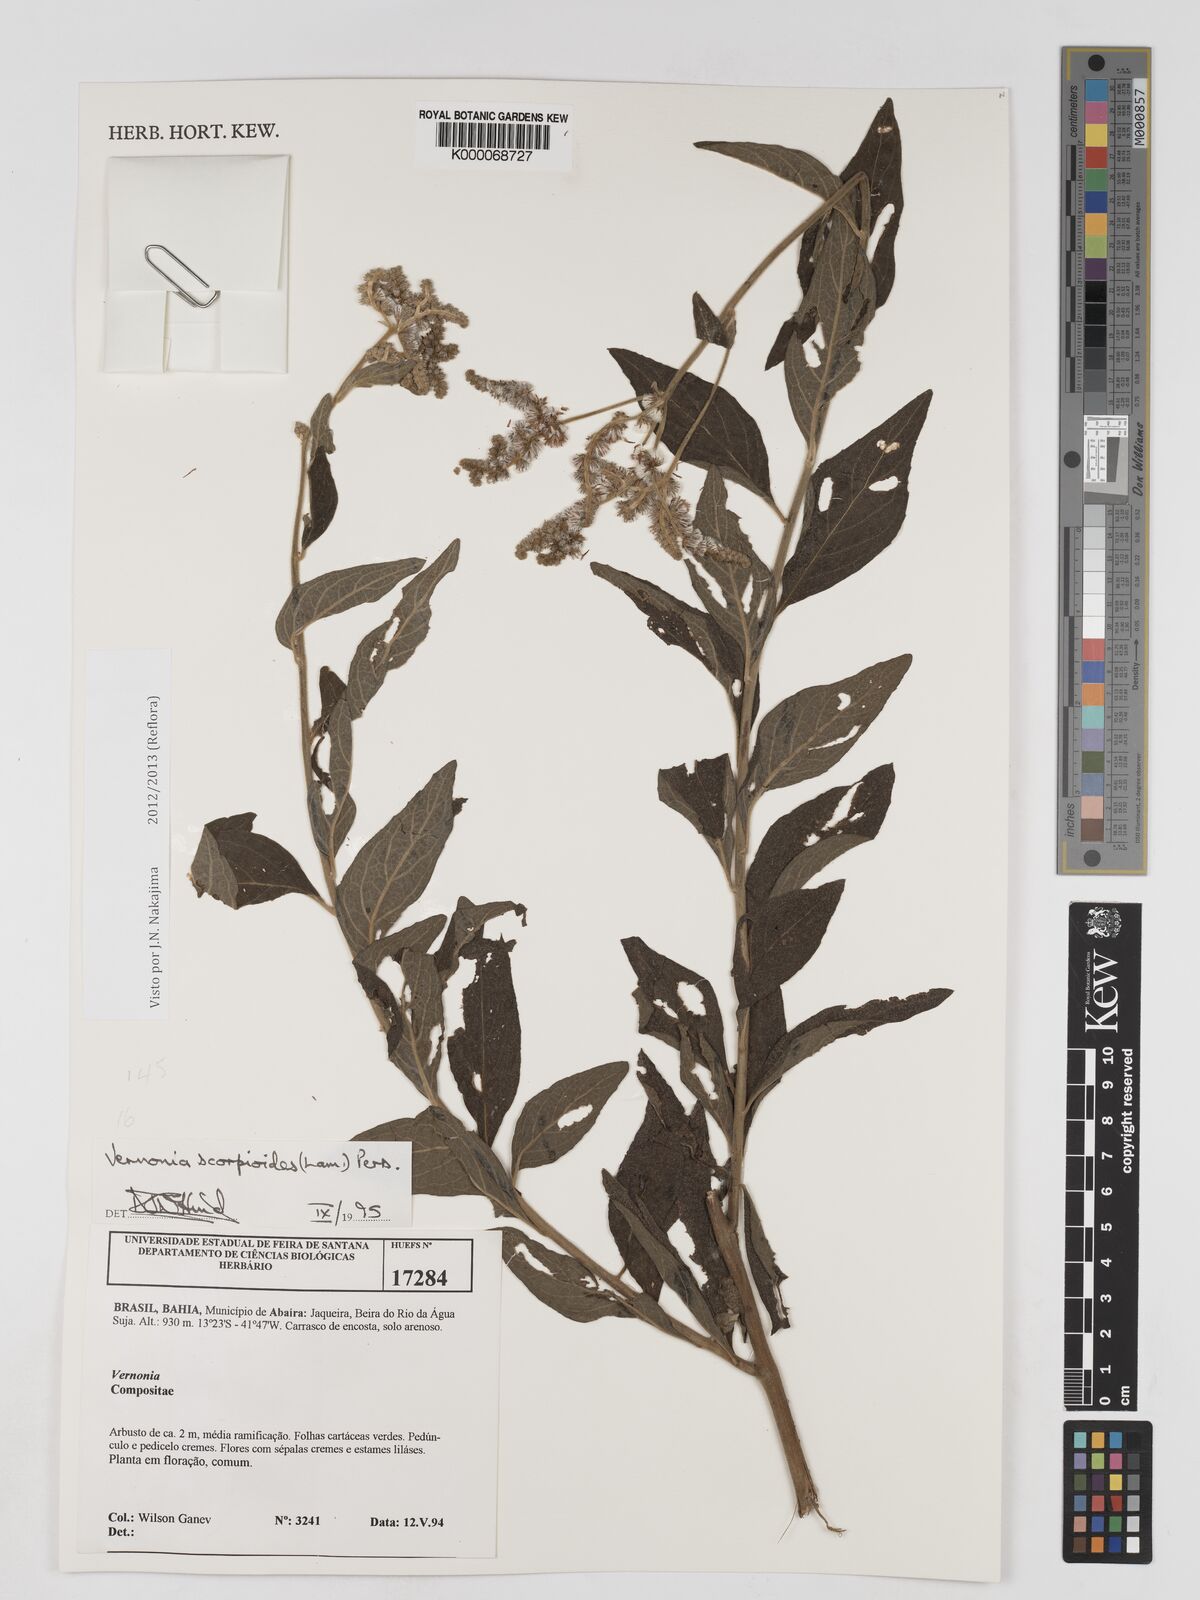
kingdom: Plantae
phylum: Tracheophyta
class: Magnoliopsida
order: Asterales
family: Asteraceae
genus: Cyrtocymura
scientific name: Cyrtocymura scorpioides
